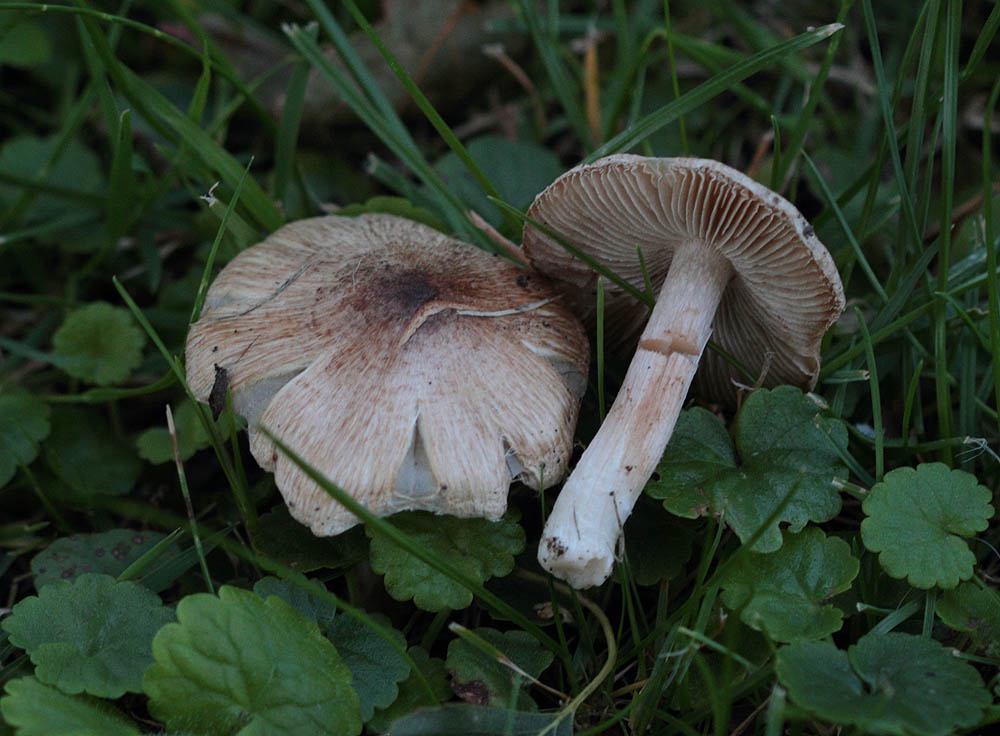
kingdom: Fungi
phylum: Basidiomycota
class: Agaricomycetes
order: Agaricales
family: Inocybaceae
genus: Inosperma
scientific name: Inosperma adaequatum
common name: vinrød trævlhat
